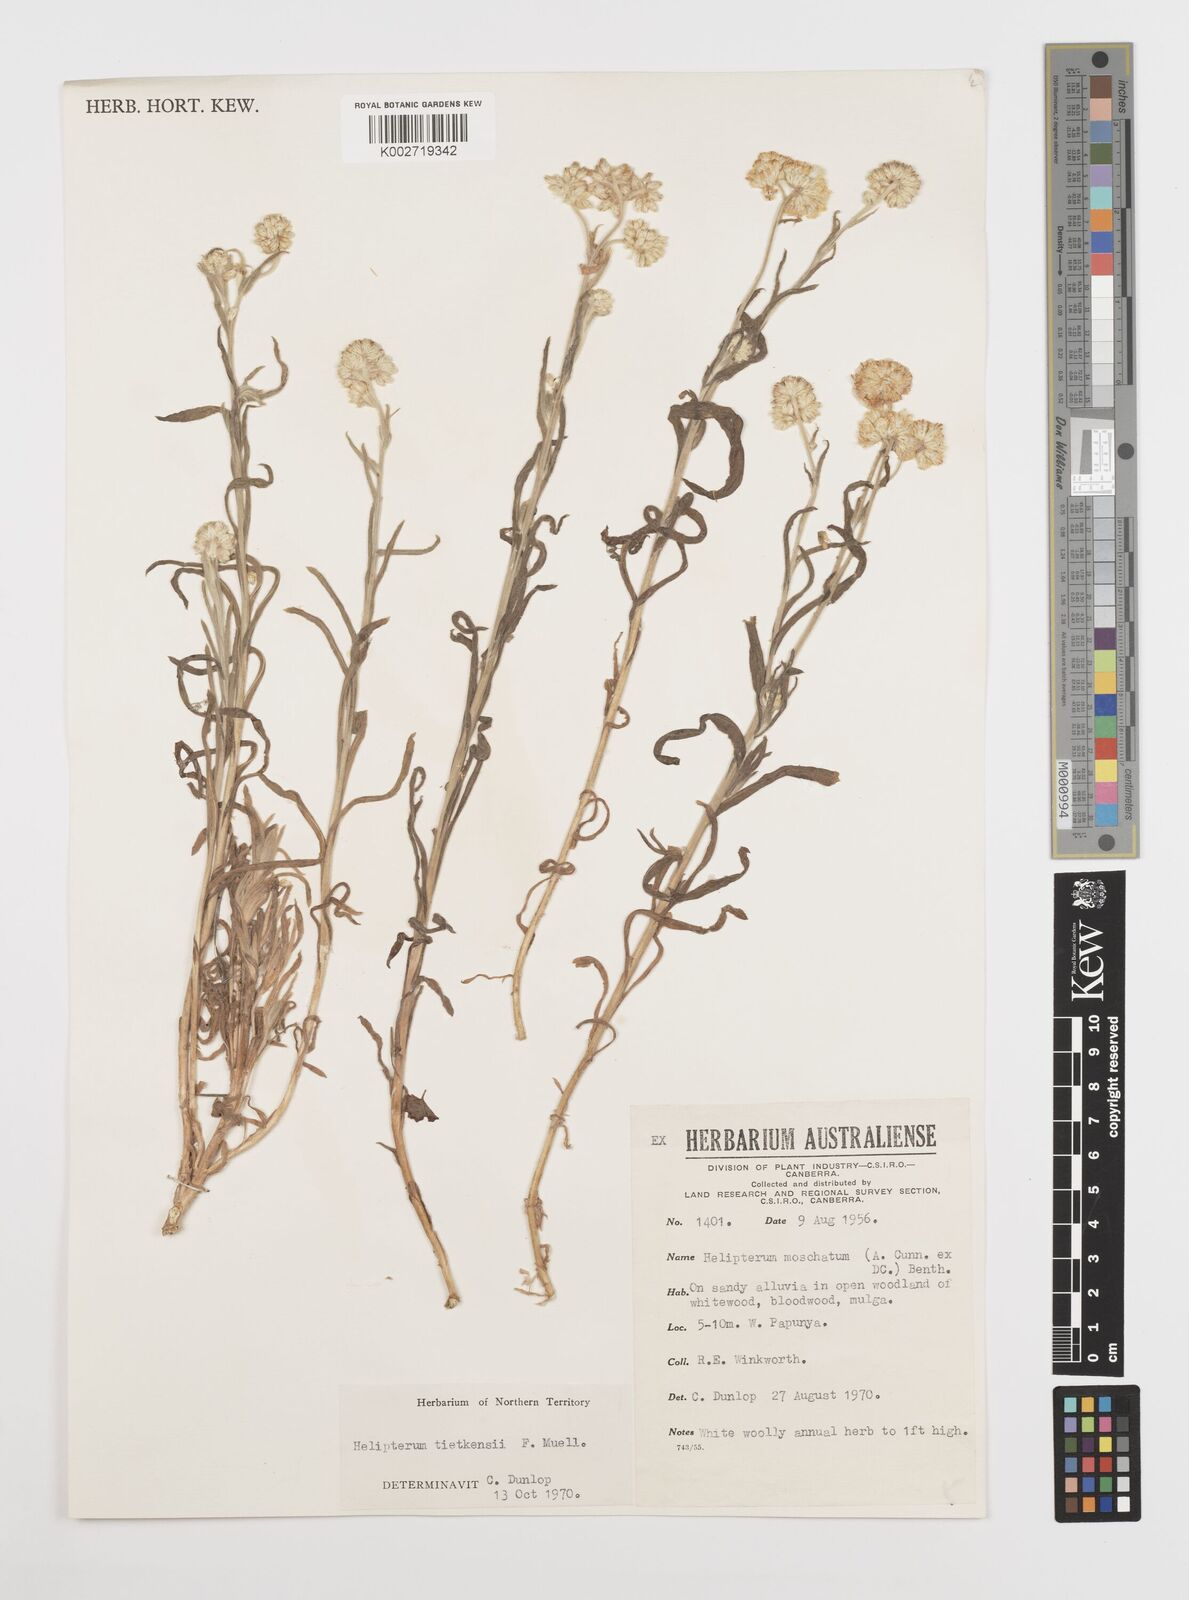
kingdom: Plantae
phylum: Tracheophyta
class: Magnoliopsida
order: Asterales
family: Asteraceae
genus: Rhodanthe
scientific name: Rhodanthe tietkensii
